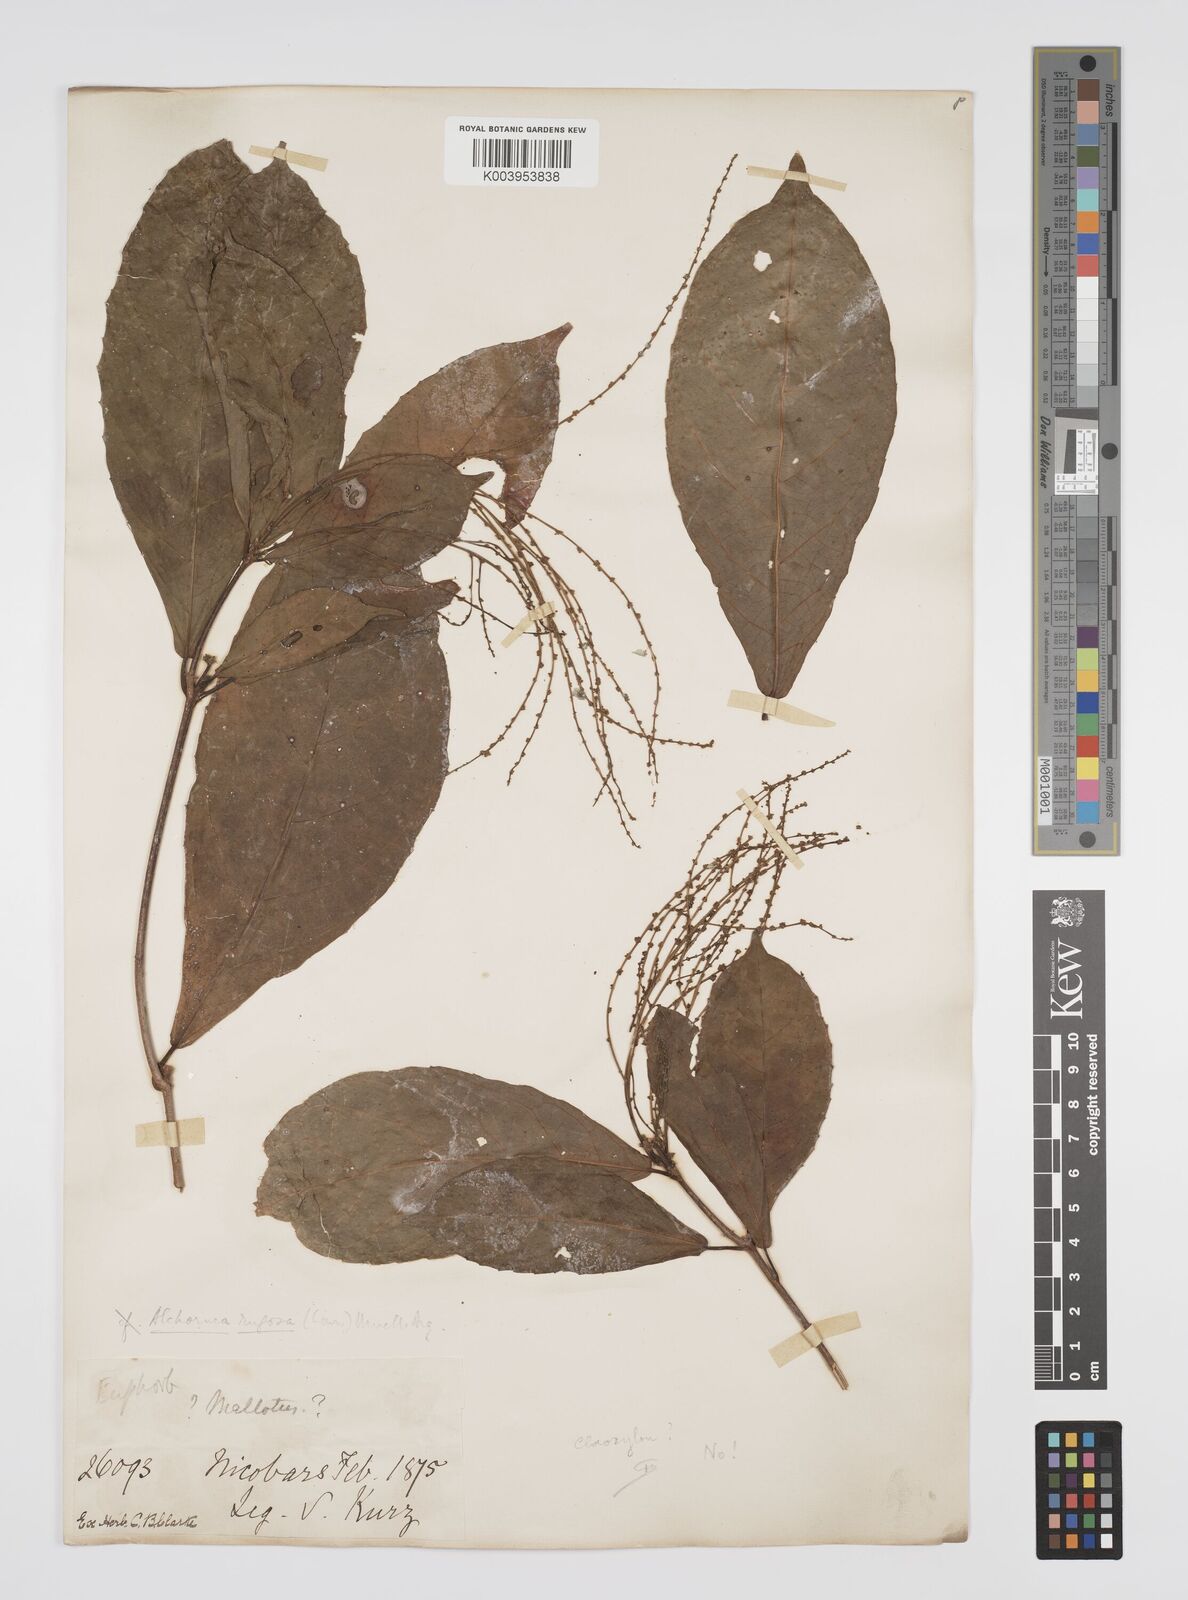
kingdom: Plantae
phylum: Tracheophyta
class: Magnoliopsida
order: Malpighiales
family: Euphorbiaceae
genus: Alchornea
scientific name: Alchornea rugosa
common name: Alchorntree
